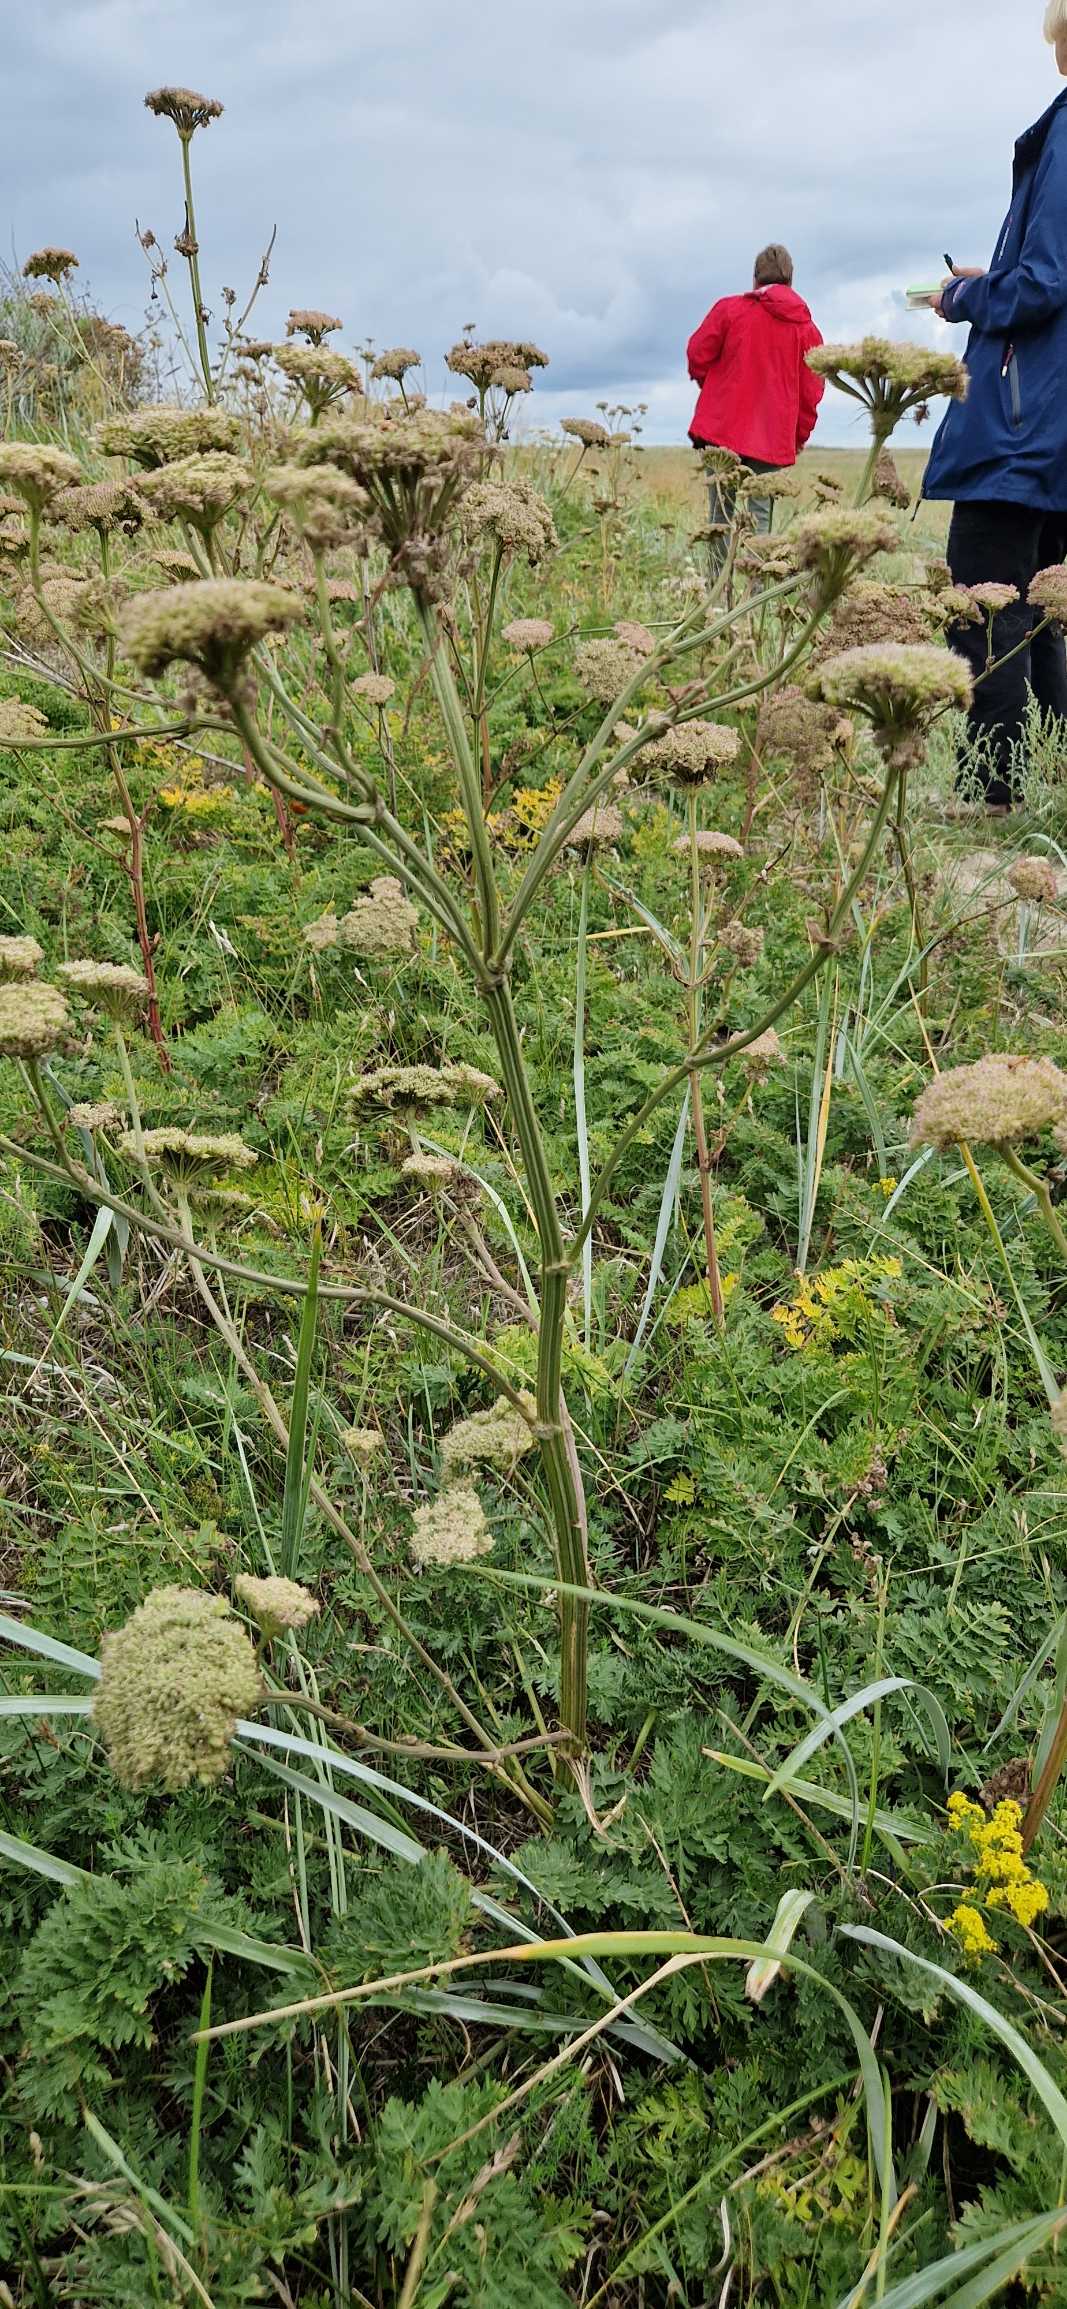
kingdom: Plantae
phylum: Tracheophyta
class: Magnoliopsida
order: Apiales
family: Apiaceae
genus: Seseli
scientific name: Seseli libanotis
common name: Hjorterod
